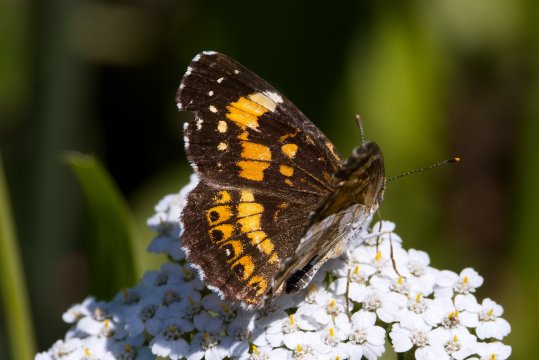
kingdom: Animalia
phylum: Arthropoda
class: Insecta
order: Lepidoptera
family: Nymphalidae
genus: Chlosyne
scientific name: Chlosyne nycteis
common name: Silvery Checkerspot
